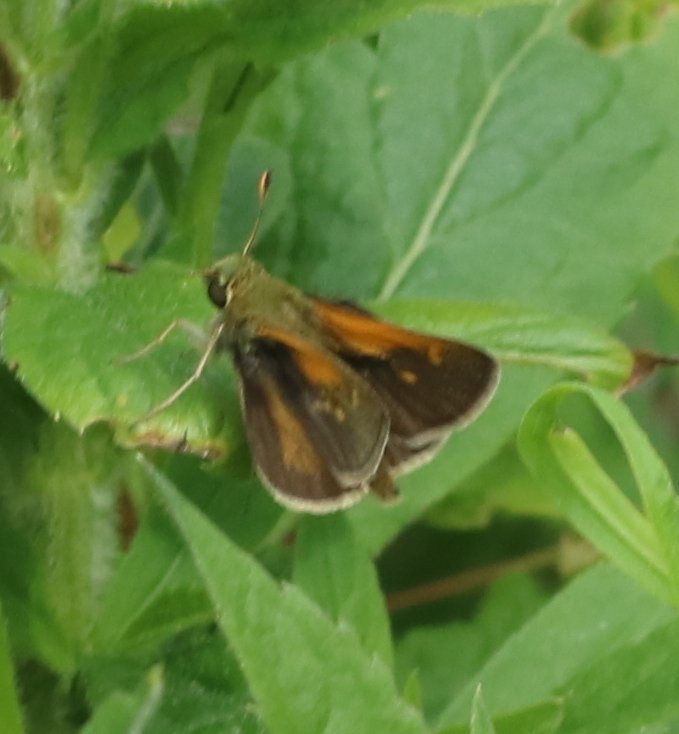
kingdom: Animalia
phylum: Arthropoda
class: Insecta
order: Lepidoptera
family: Hesperiidae
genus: Polites
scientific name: Polites
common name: Long Dash Skipper
